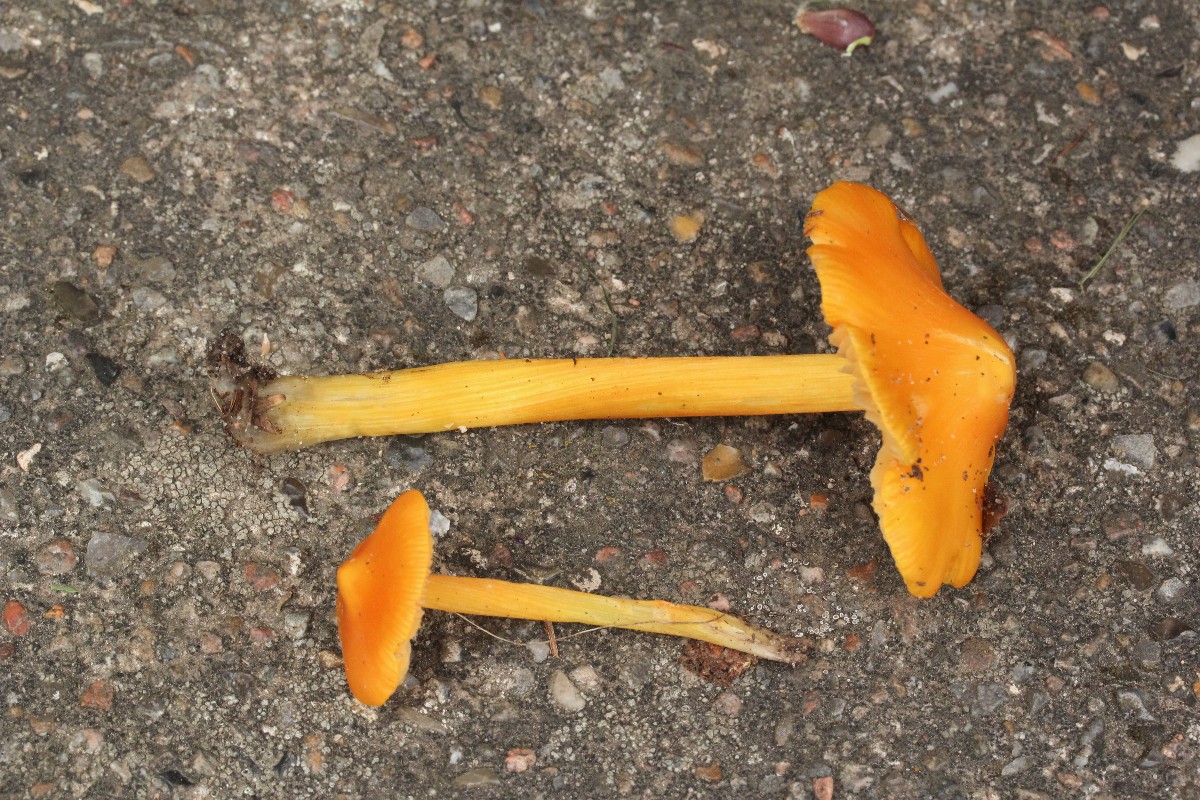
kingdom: Fungi
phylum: Basidiomycota
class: Agaricomycetes
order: Agaricales
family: Hygrophoraceae
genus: Hygrocybe
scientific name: Hygrocybe acutoconica
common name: spidspuklet vokshat
